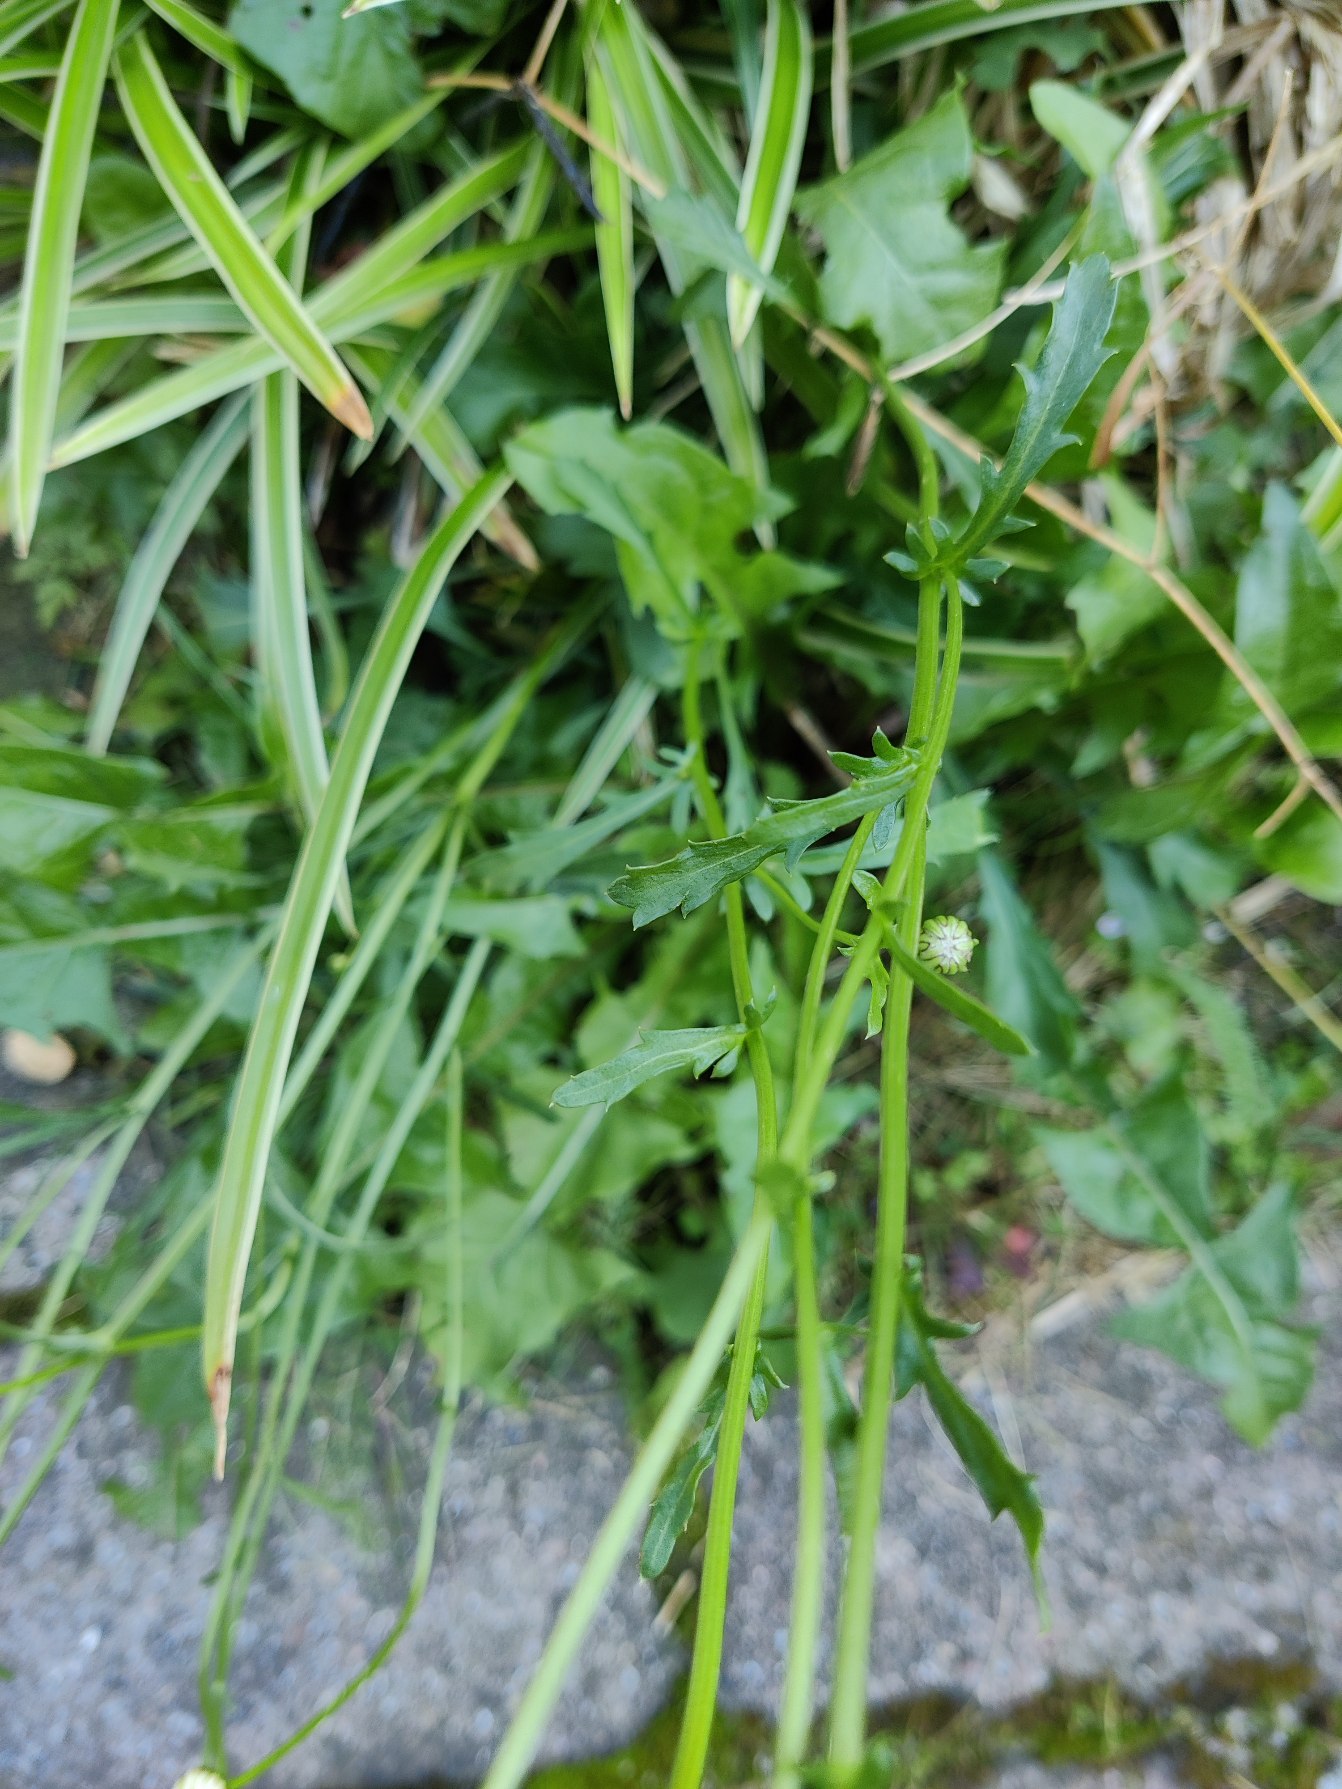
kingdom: Plantae
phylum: Tracheophyta
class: Magnoliopsida
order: Asterales
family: Asteraceae
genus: Leucanthemum
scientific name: Leucanthemum vulgare
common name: Hvid okseøje
